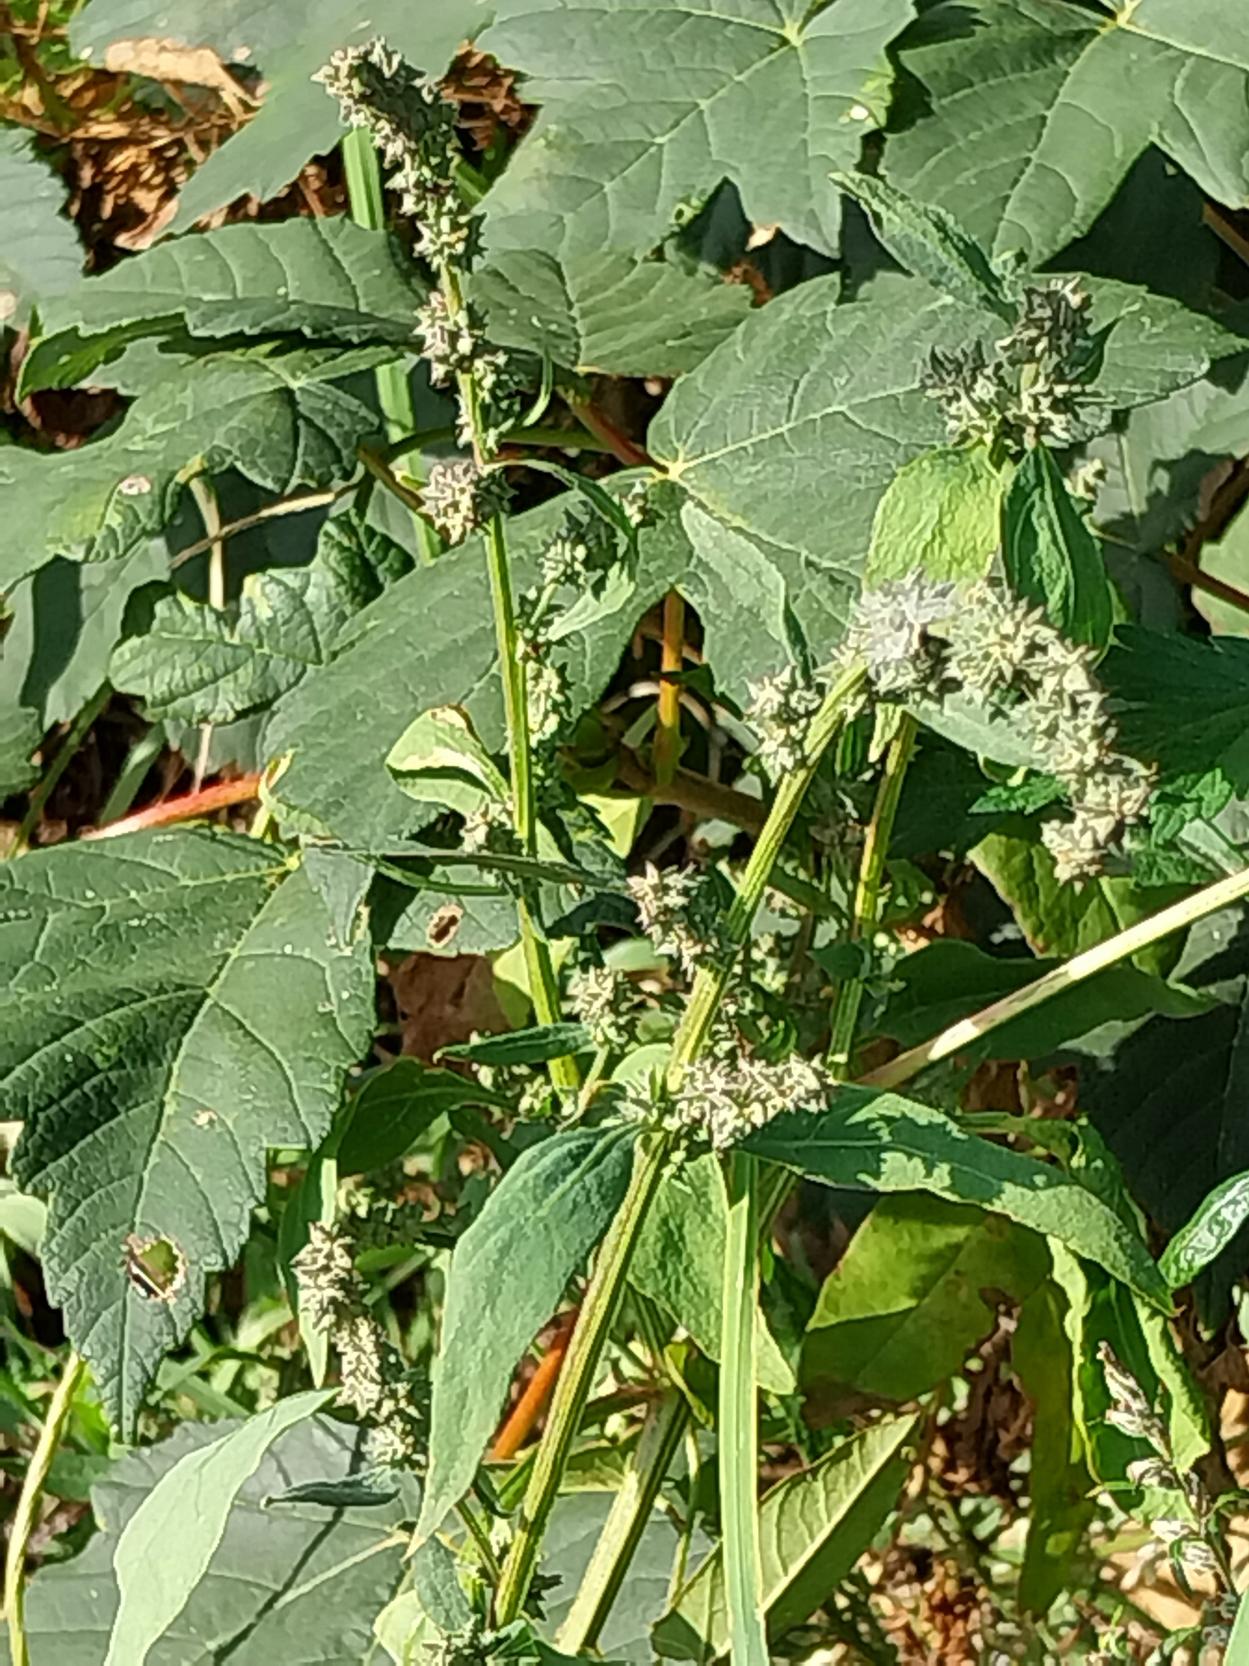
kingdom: Plantae
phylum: Tracheophyta
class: Magnoliopsida
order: Caryophyllales
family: Amaranthaceae
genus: Atriplex
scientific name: Atriplex patula
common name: Svine-mælde
